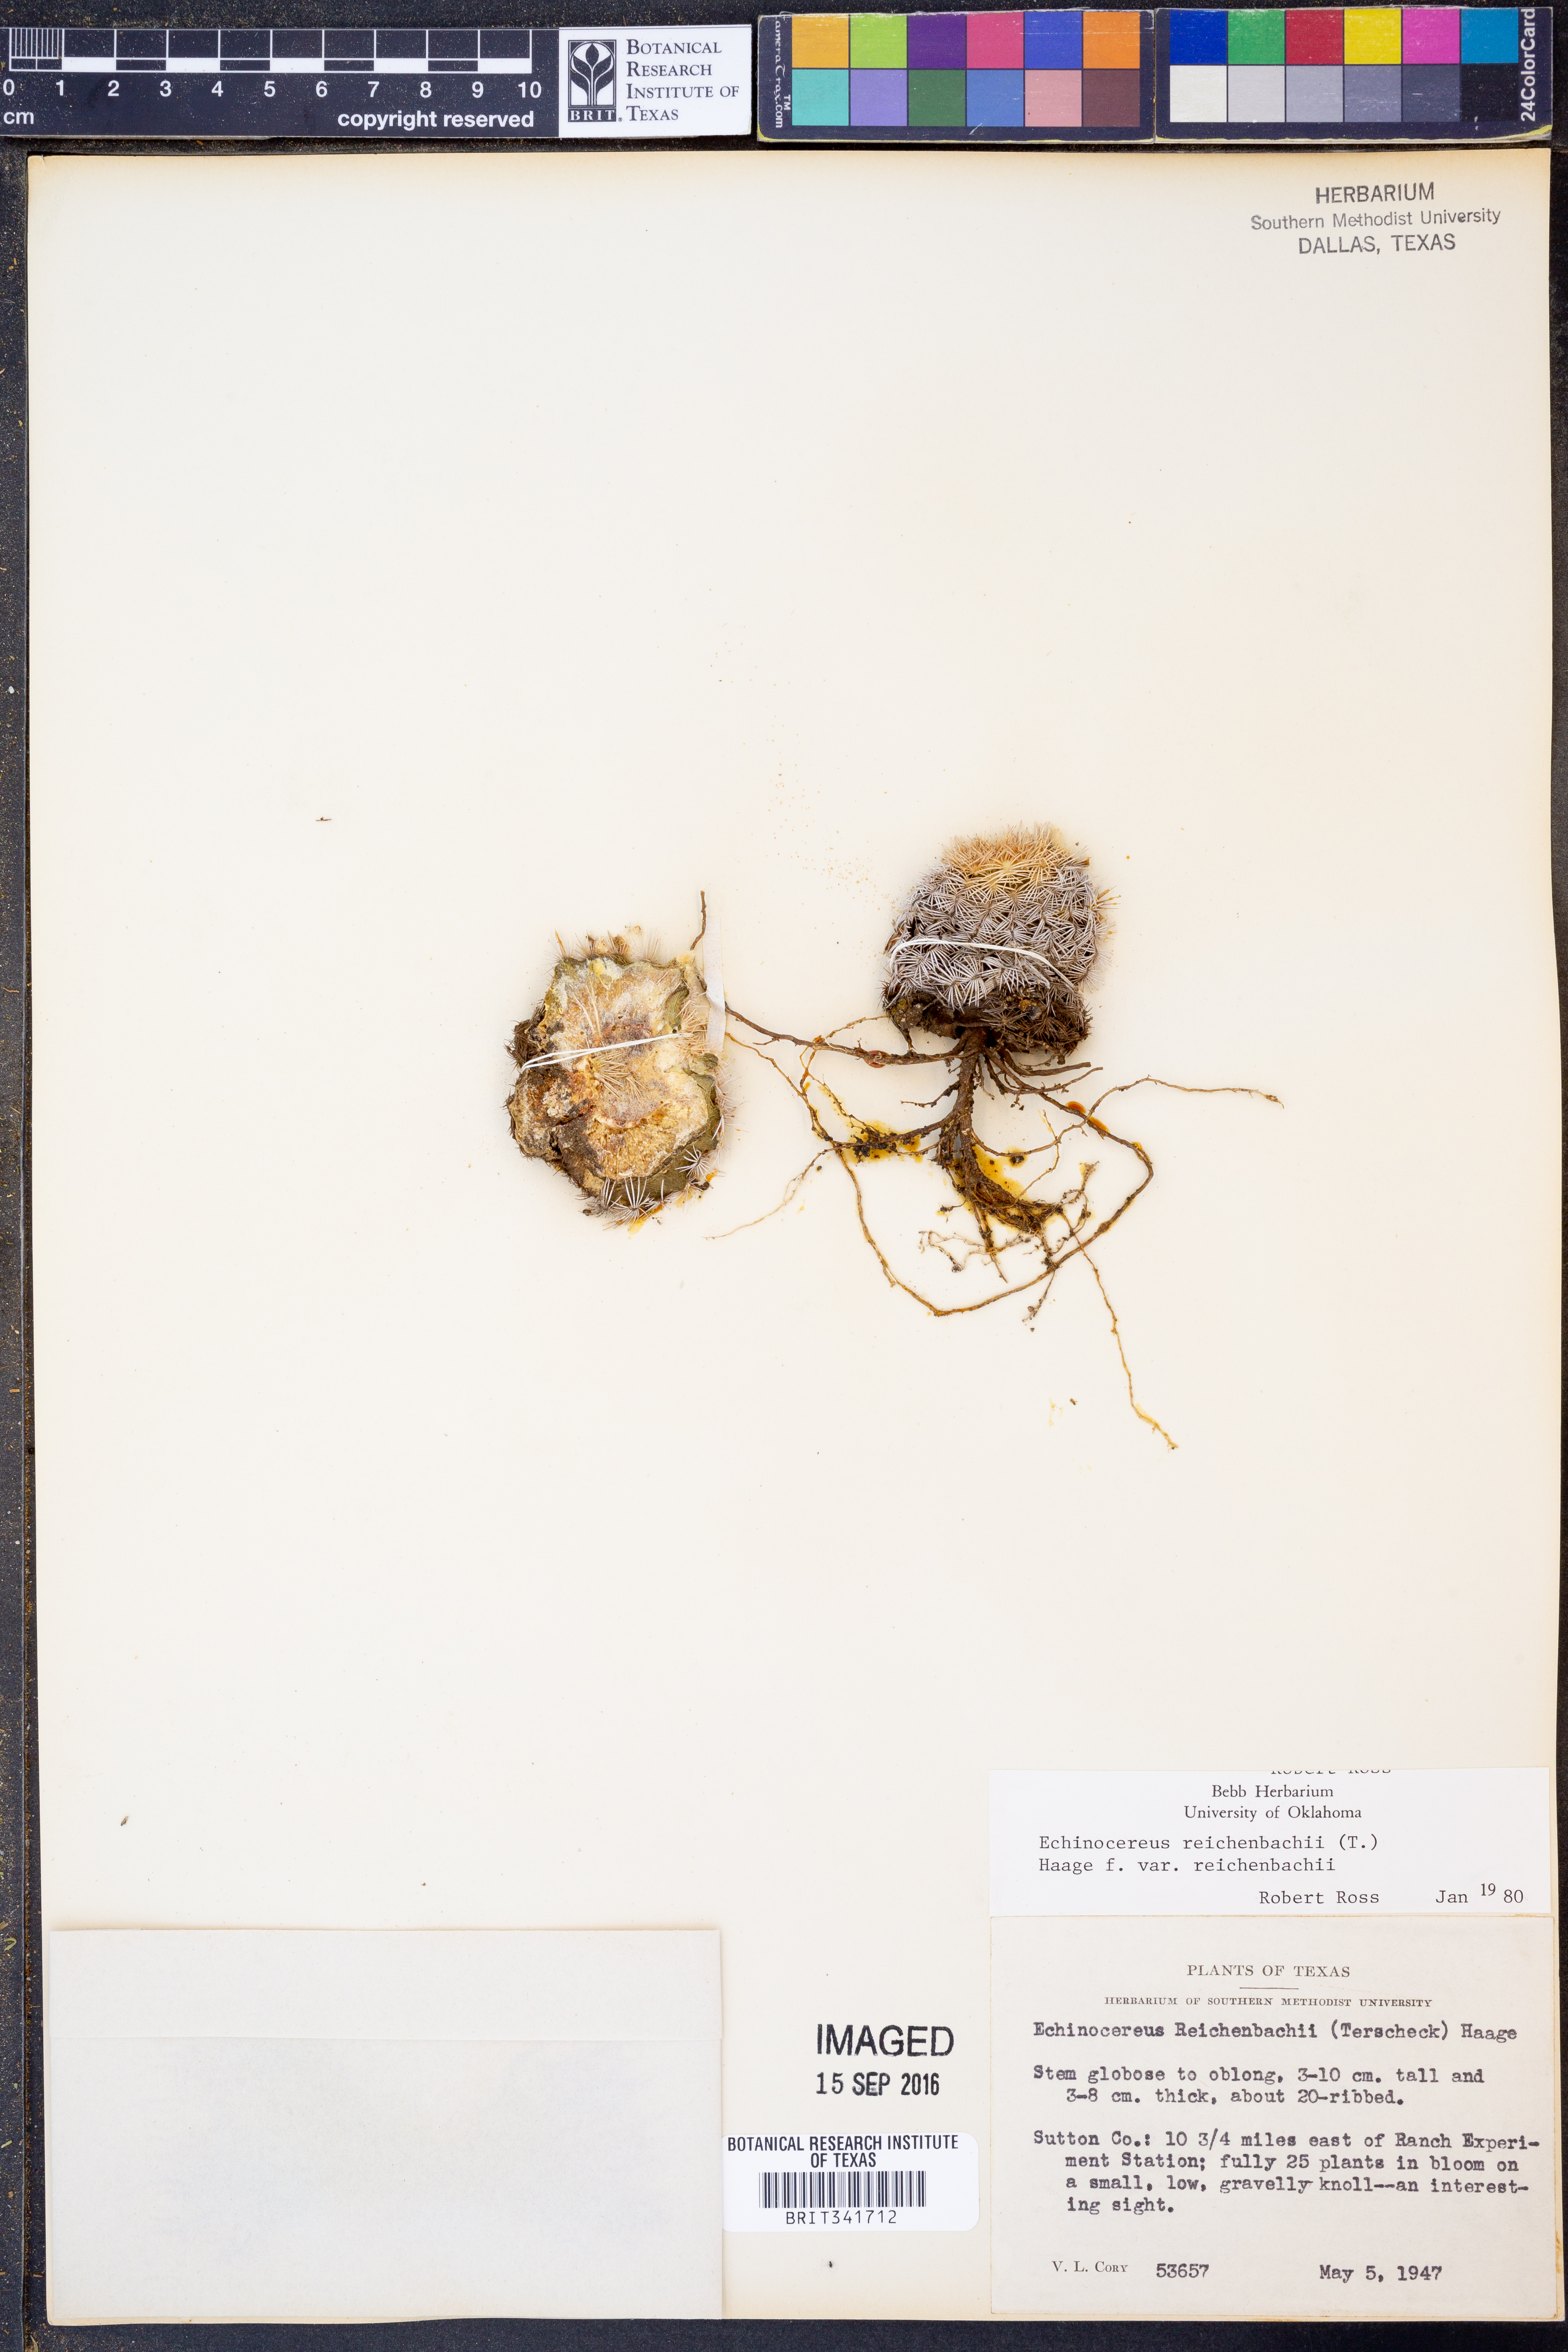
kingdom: Plantae
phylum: Tracheophyta
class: Magnoliopsida
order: Caryophyllales
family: Cactaceae
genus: Echinocereus
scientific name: Echinocereus reichenbachii
